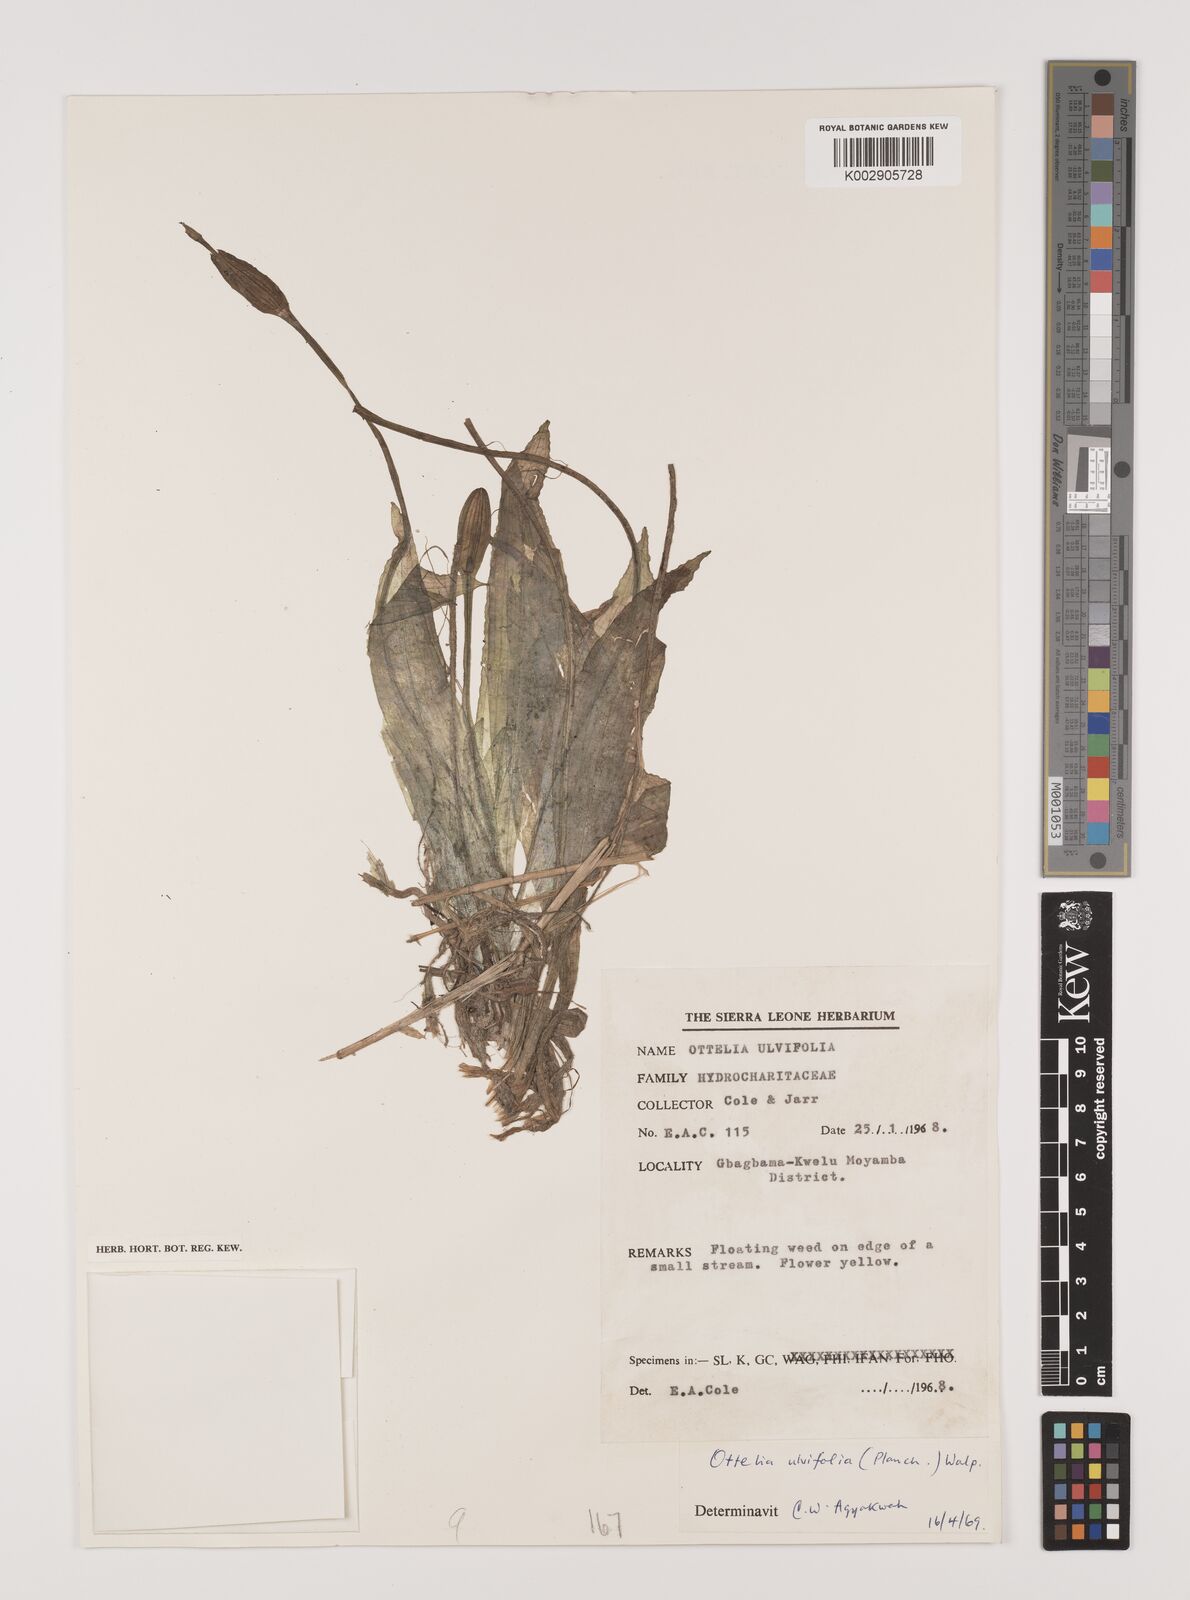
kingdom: Plantae
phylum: Tracheophyta
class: Liliopsida
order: Alismatales
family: Hydrocharitaceae
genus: Ottelia
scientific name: Ottelia ulvifolia
